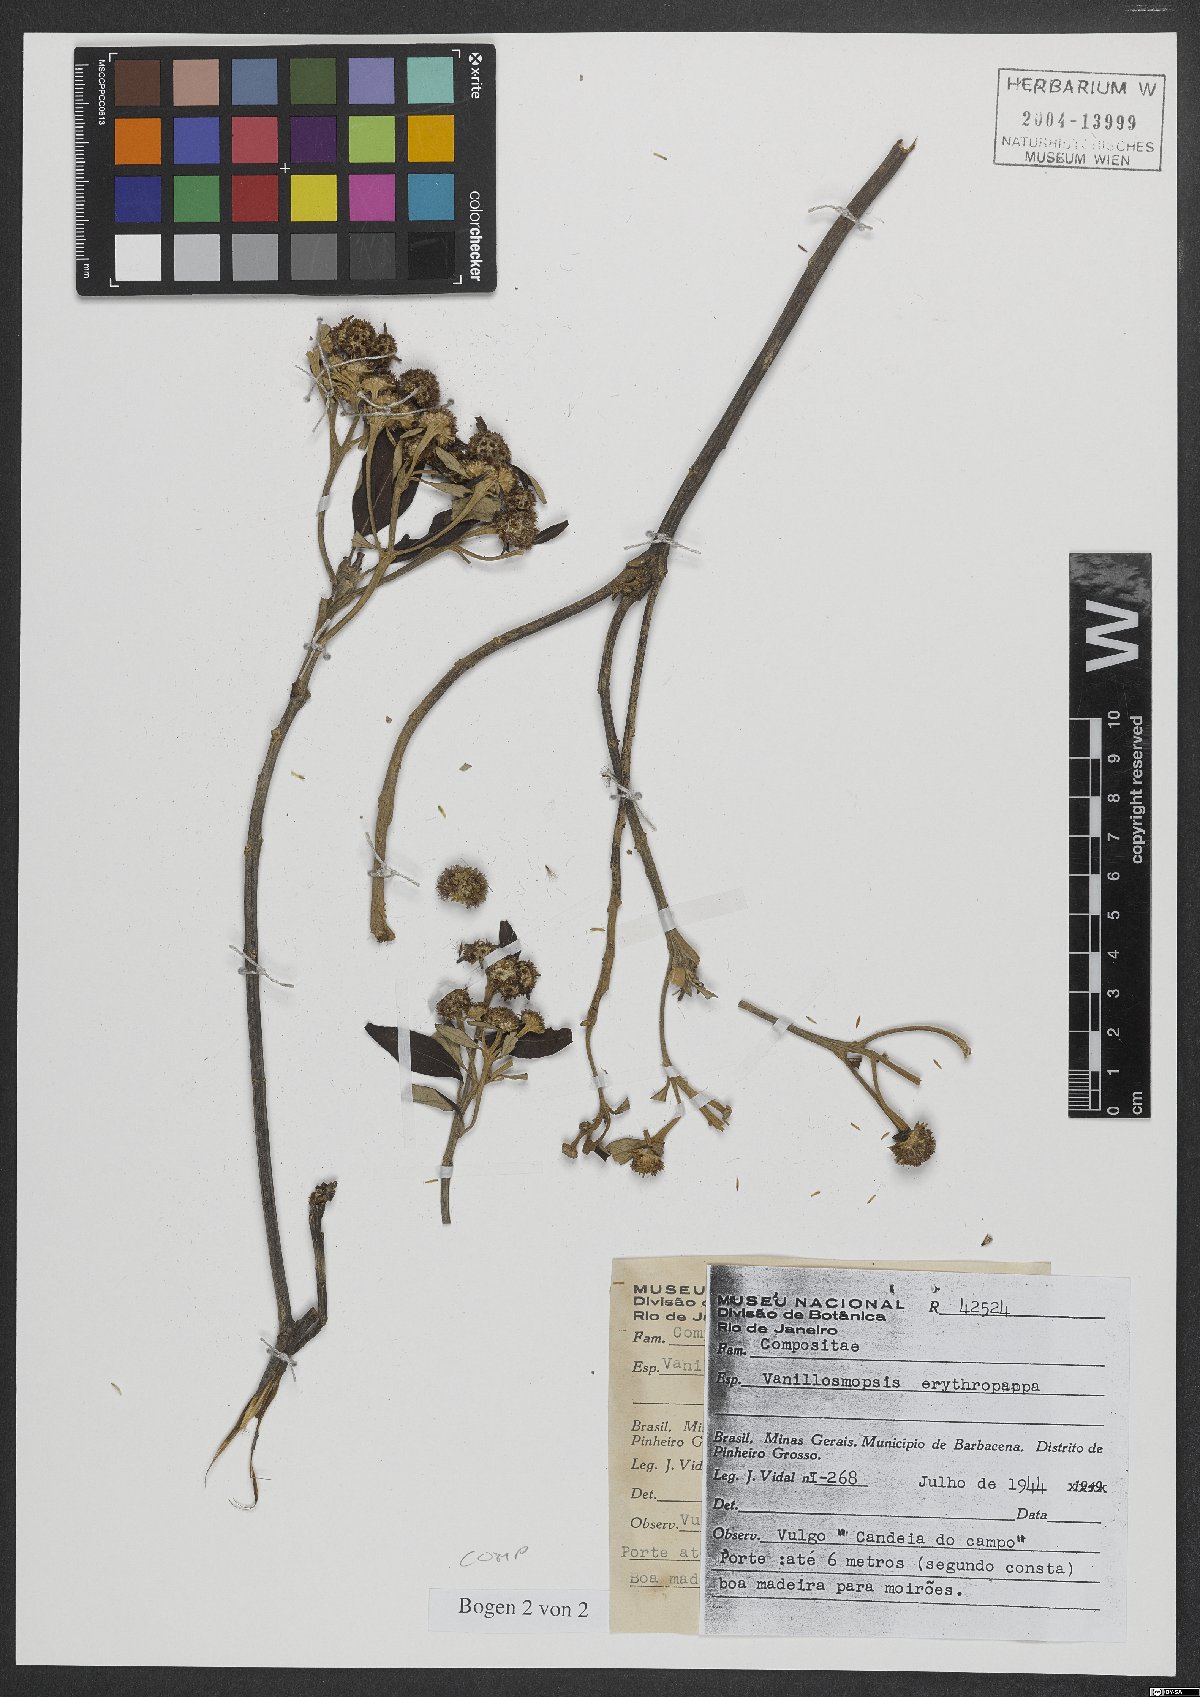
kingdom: Plantae
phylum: Tracheophyta
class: Magnoliopsida
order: Asterales
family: Asteraceae
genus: Eremanthus
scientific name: Eremanthus erythropappus
